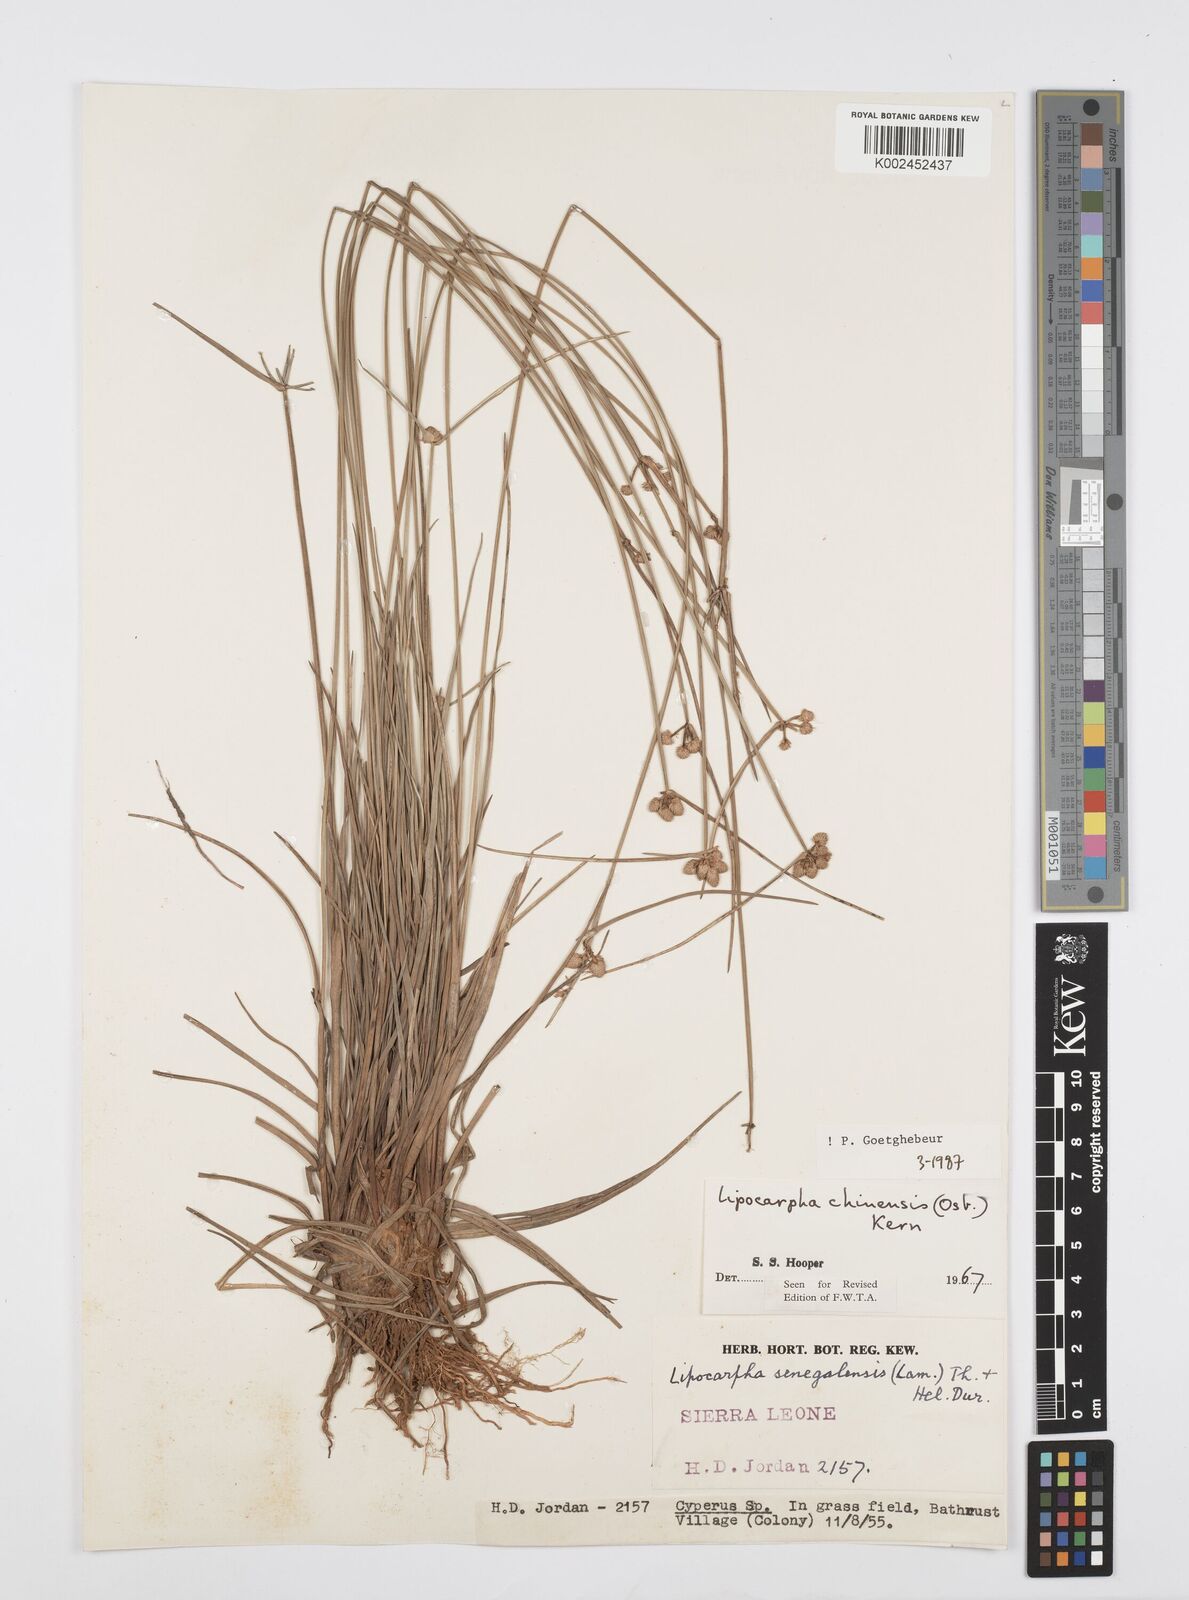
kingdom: Plantae
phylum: Tracheophyta
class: Liliopsida
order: Poales
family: Cyperaceae
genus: Cyperus
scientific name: Cyperus albescens
